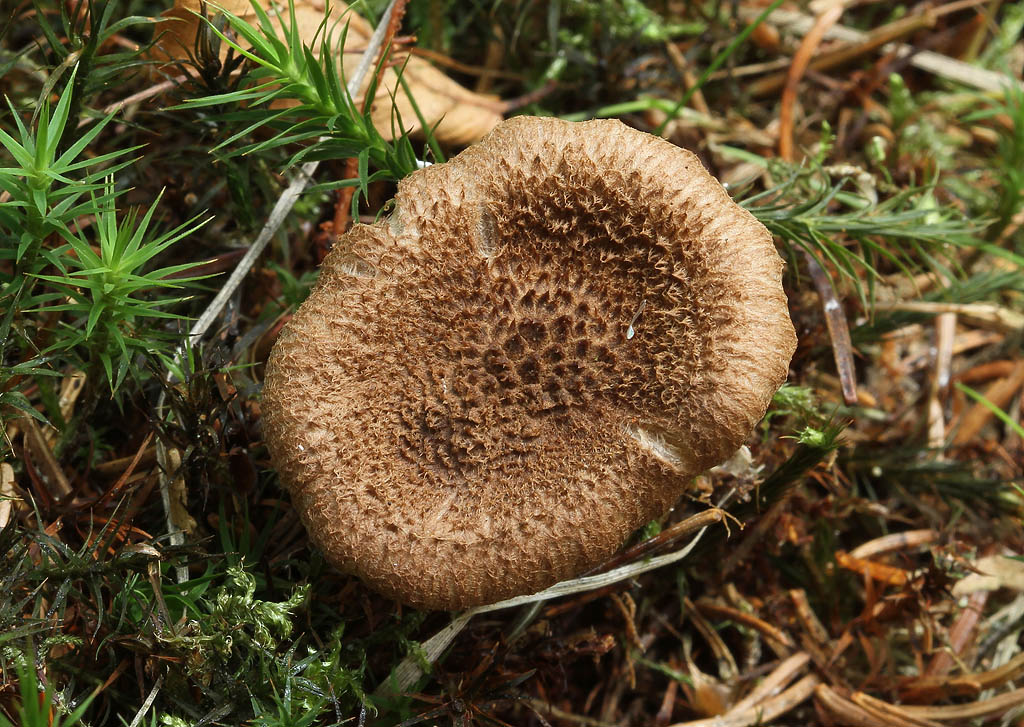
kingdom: Fungi
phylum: Basidiomycota
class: Agaricomycetes
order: Agaricales
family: Inocybaceae
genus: Inocybe
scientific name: Inocybe stellatospora
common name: spidsskællet trævlhat
